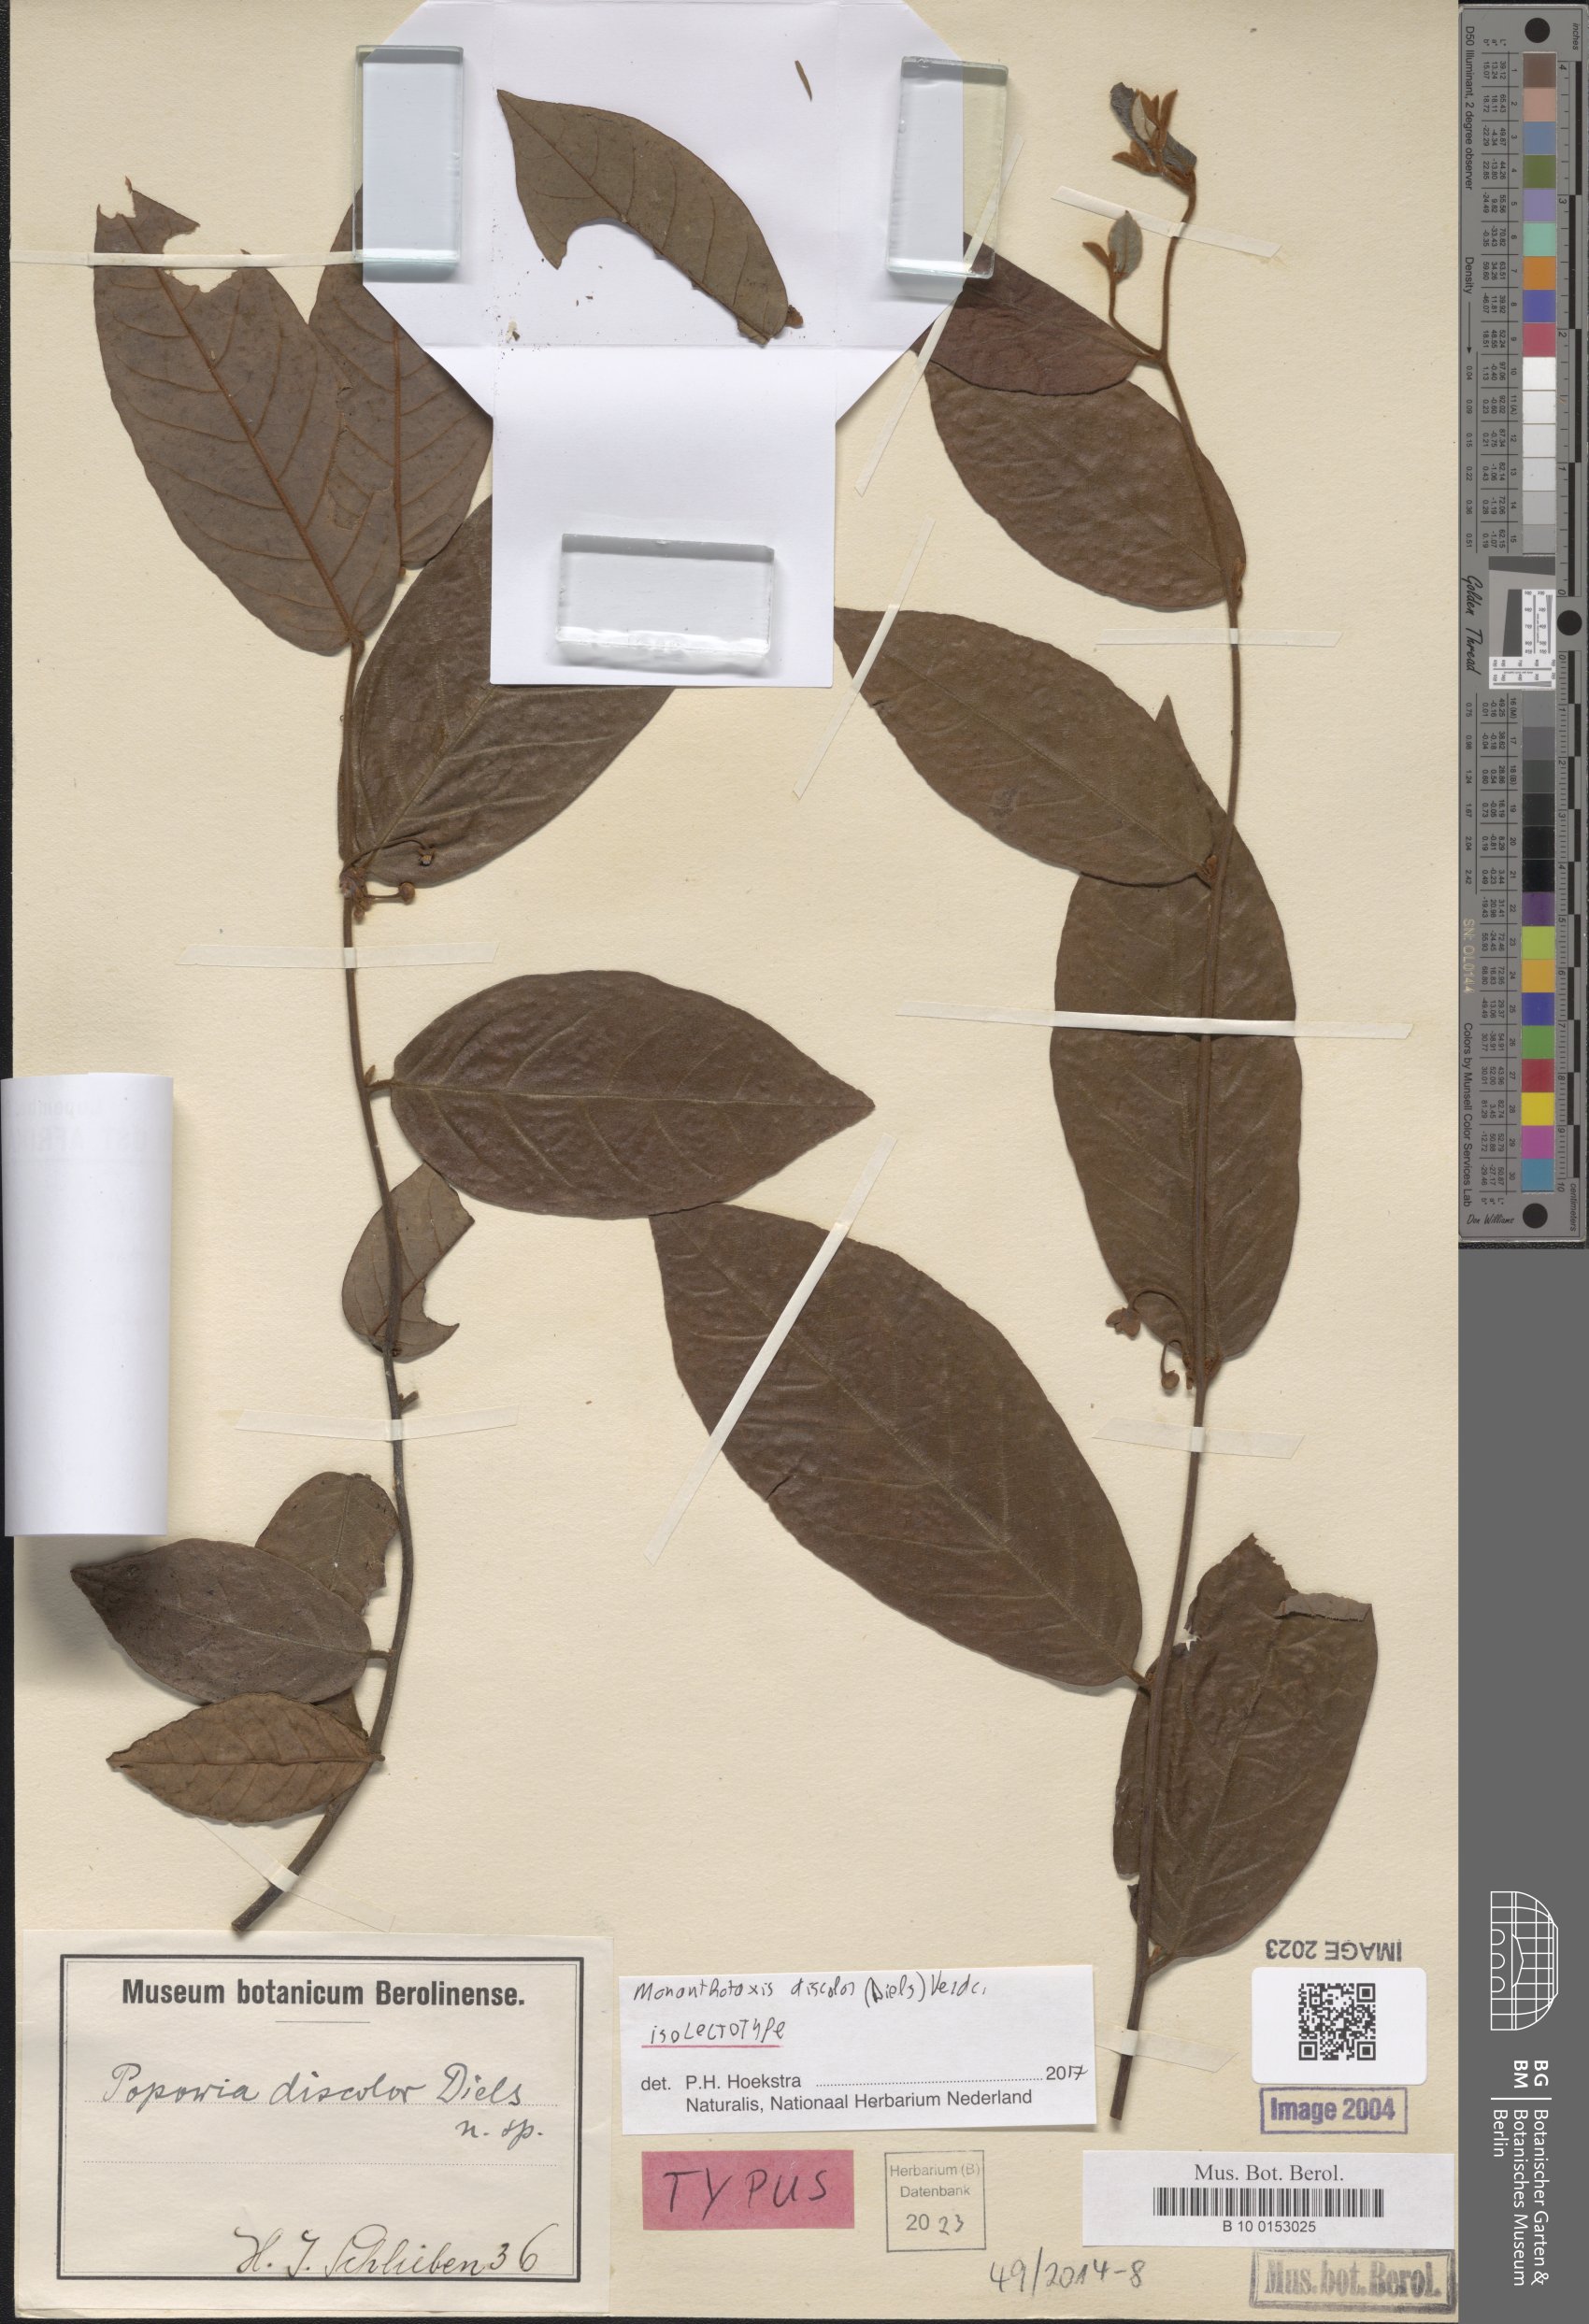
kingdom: Plantae
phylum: Tracheophyta
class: Magnoliopsida
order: Magnoliales
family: Annonaceae
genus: Monanthotaxis
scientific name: Monanthotaxis discolor
